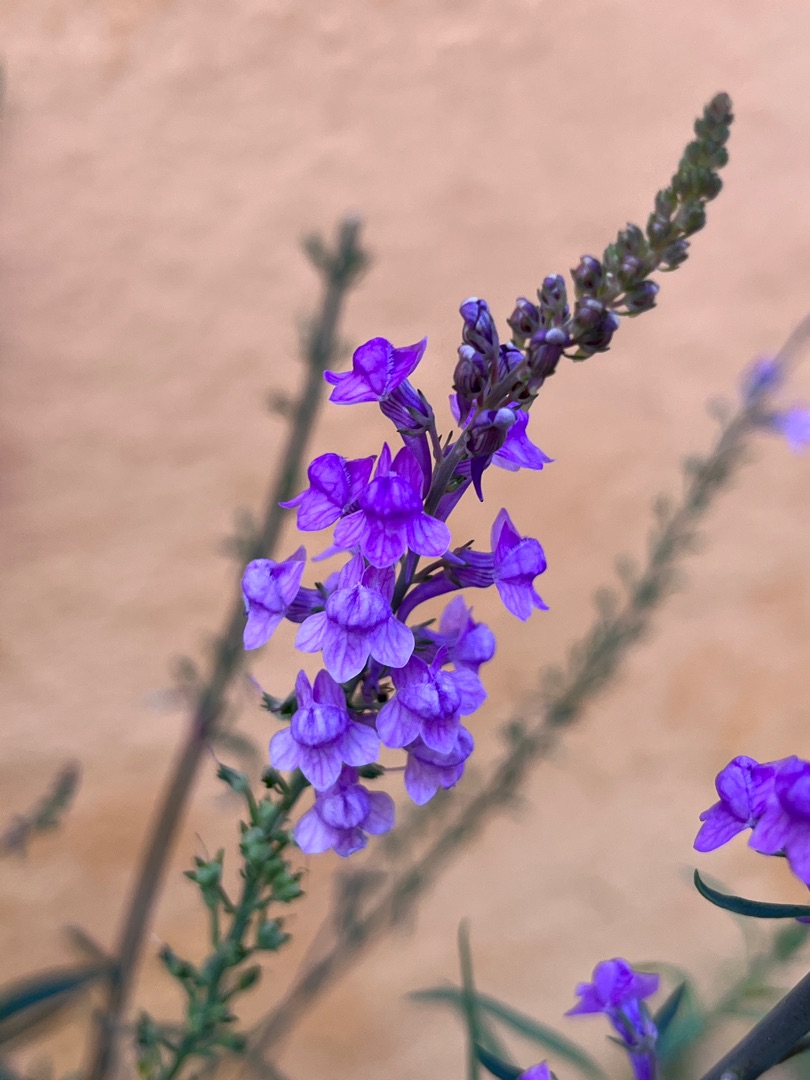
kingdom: Plantae
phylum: Tracheophyta
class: Magnoliopsida
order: Lamiales
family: Plantaginaceae
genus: Linaria
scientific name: Linaria purpurea
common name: Purpur-torskemund
